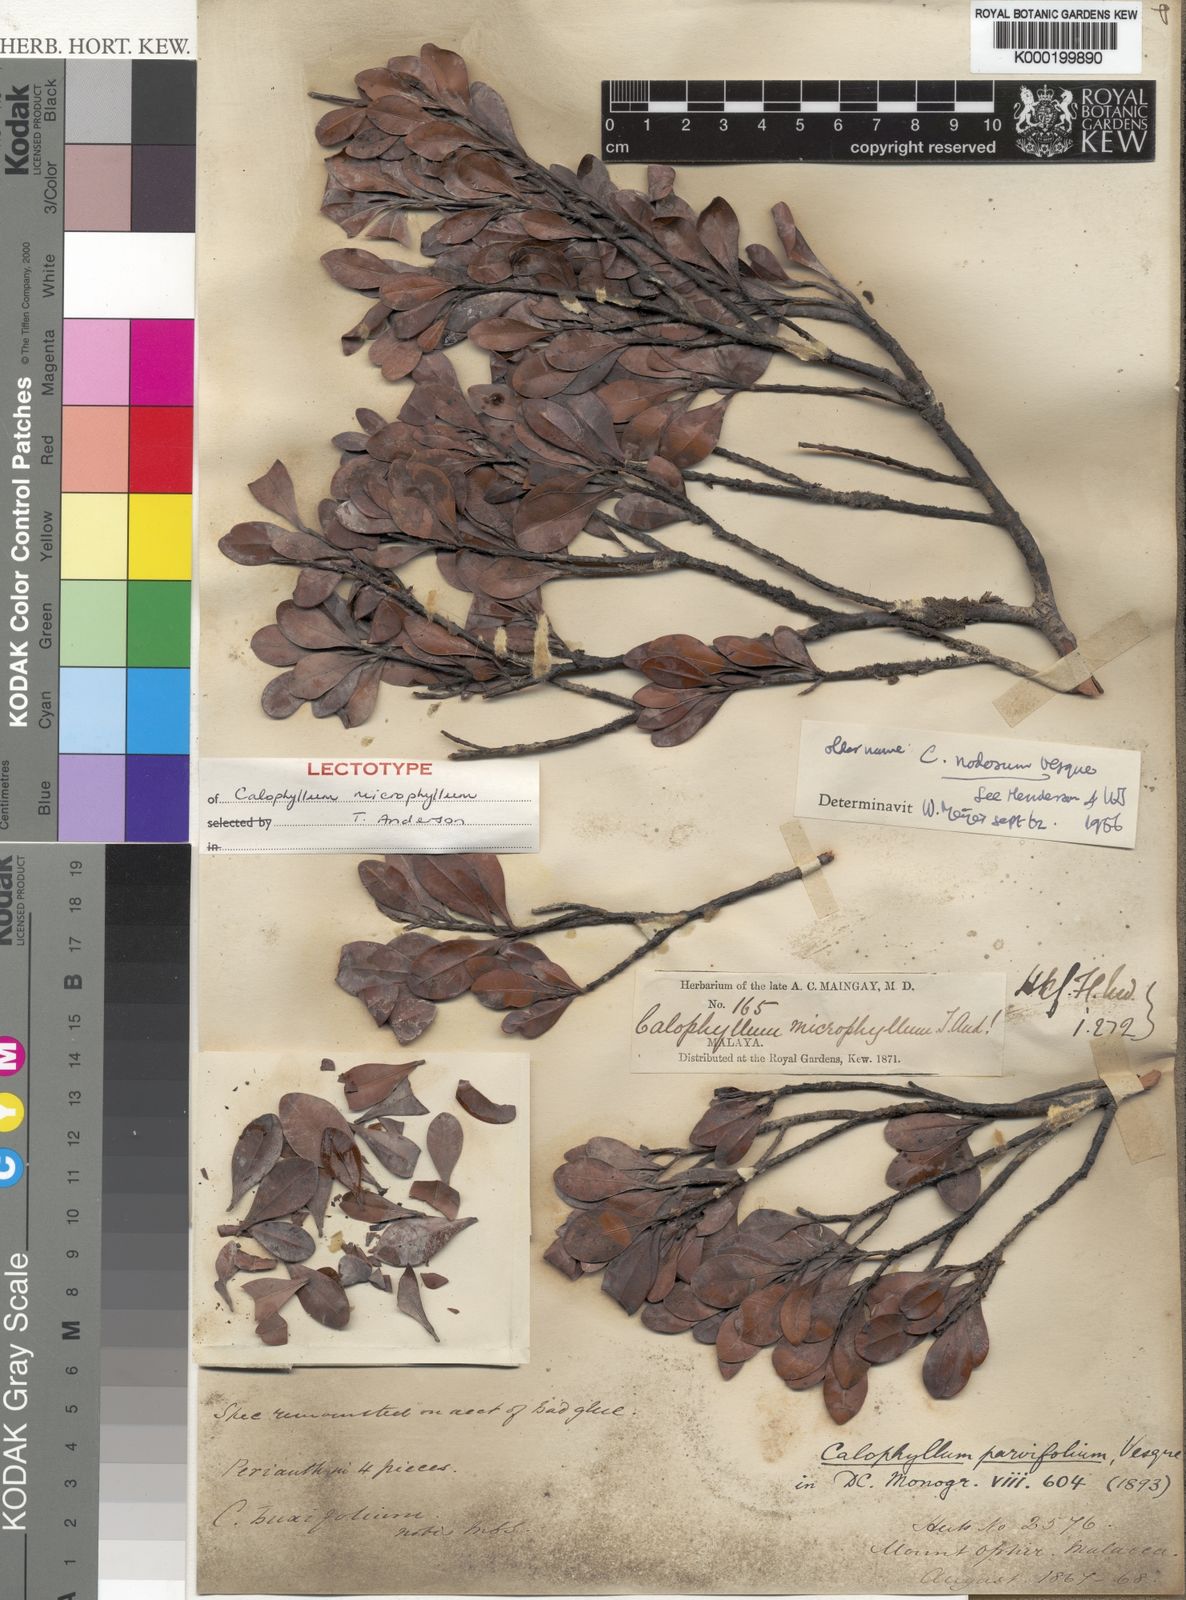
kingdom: Plantae
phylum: Tracheophyta
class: Magnoliopsida
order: Malpighiales
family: Calophyllaceae
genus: Calophyllum
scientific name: Calophyllum nodosum
